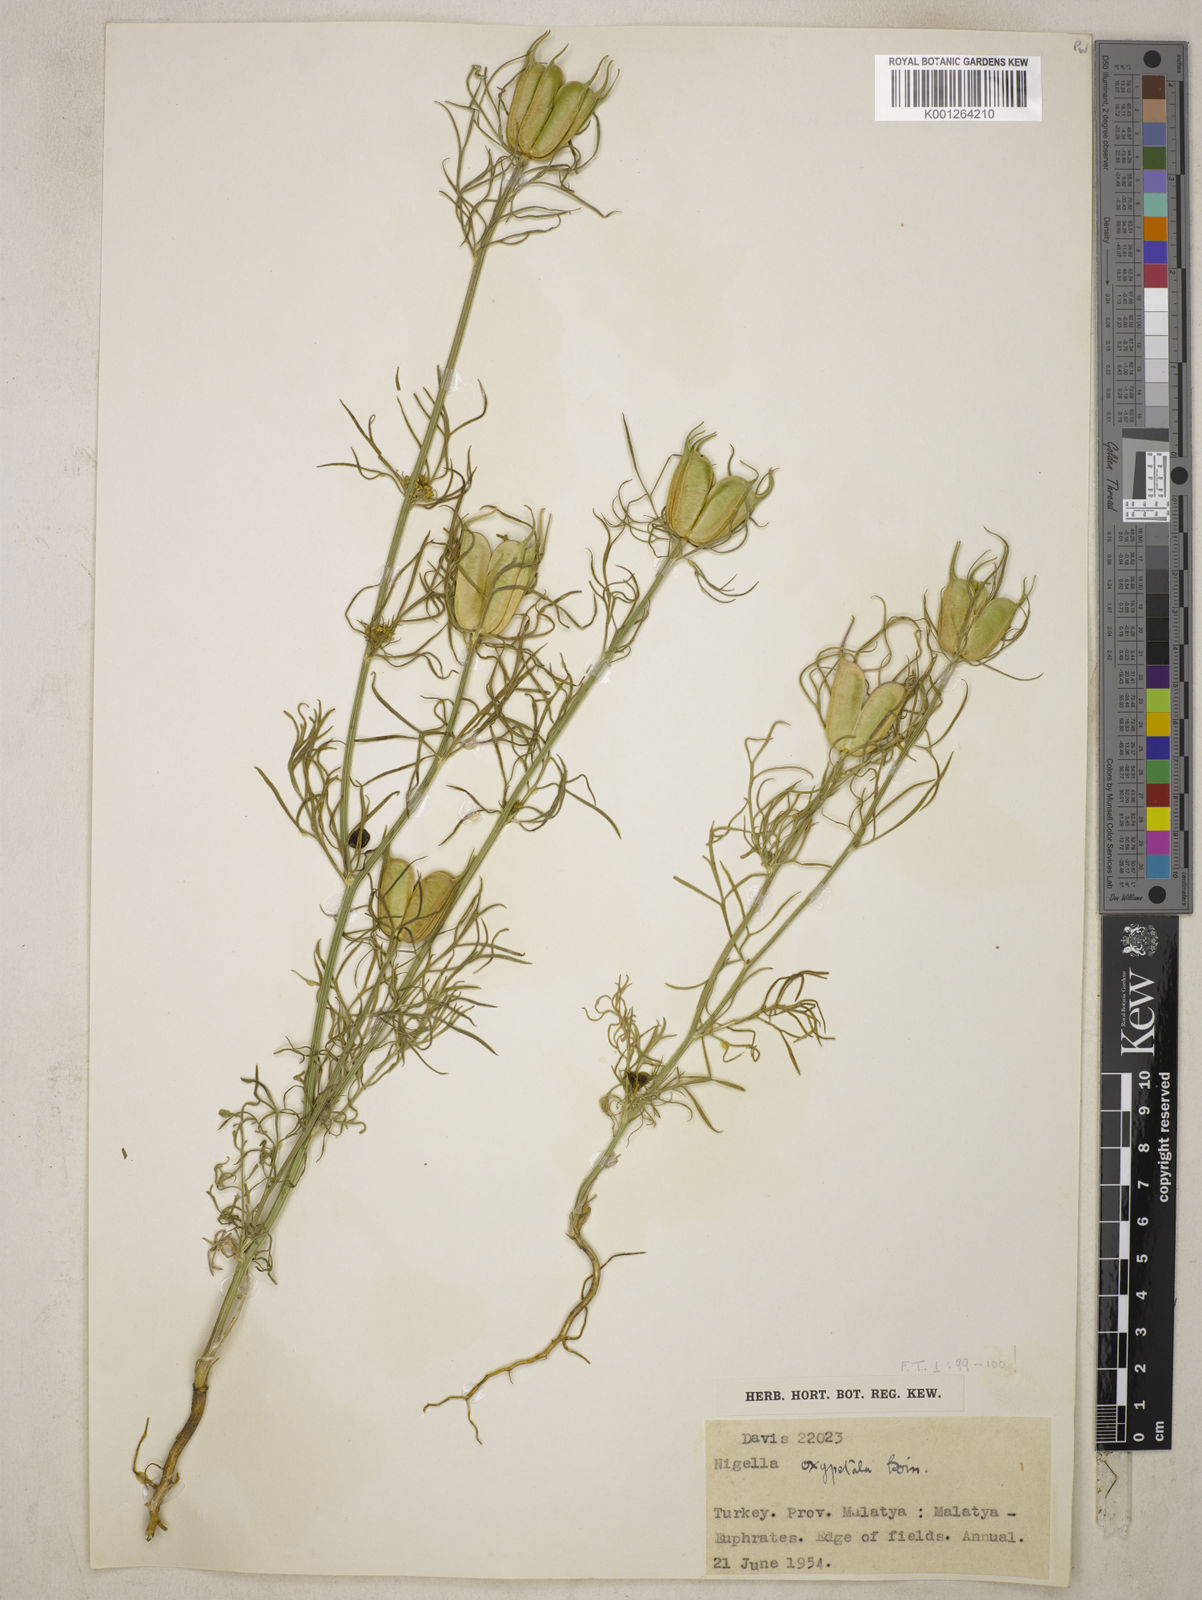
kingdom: Plantae
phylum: Tracheophyta
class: Magnoliopsida
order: Ranunculales
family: Ranunculaceae
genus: Nigella
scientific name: Nigella oxypetala
